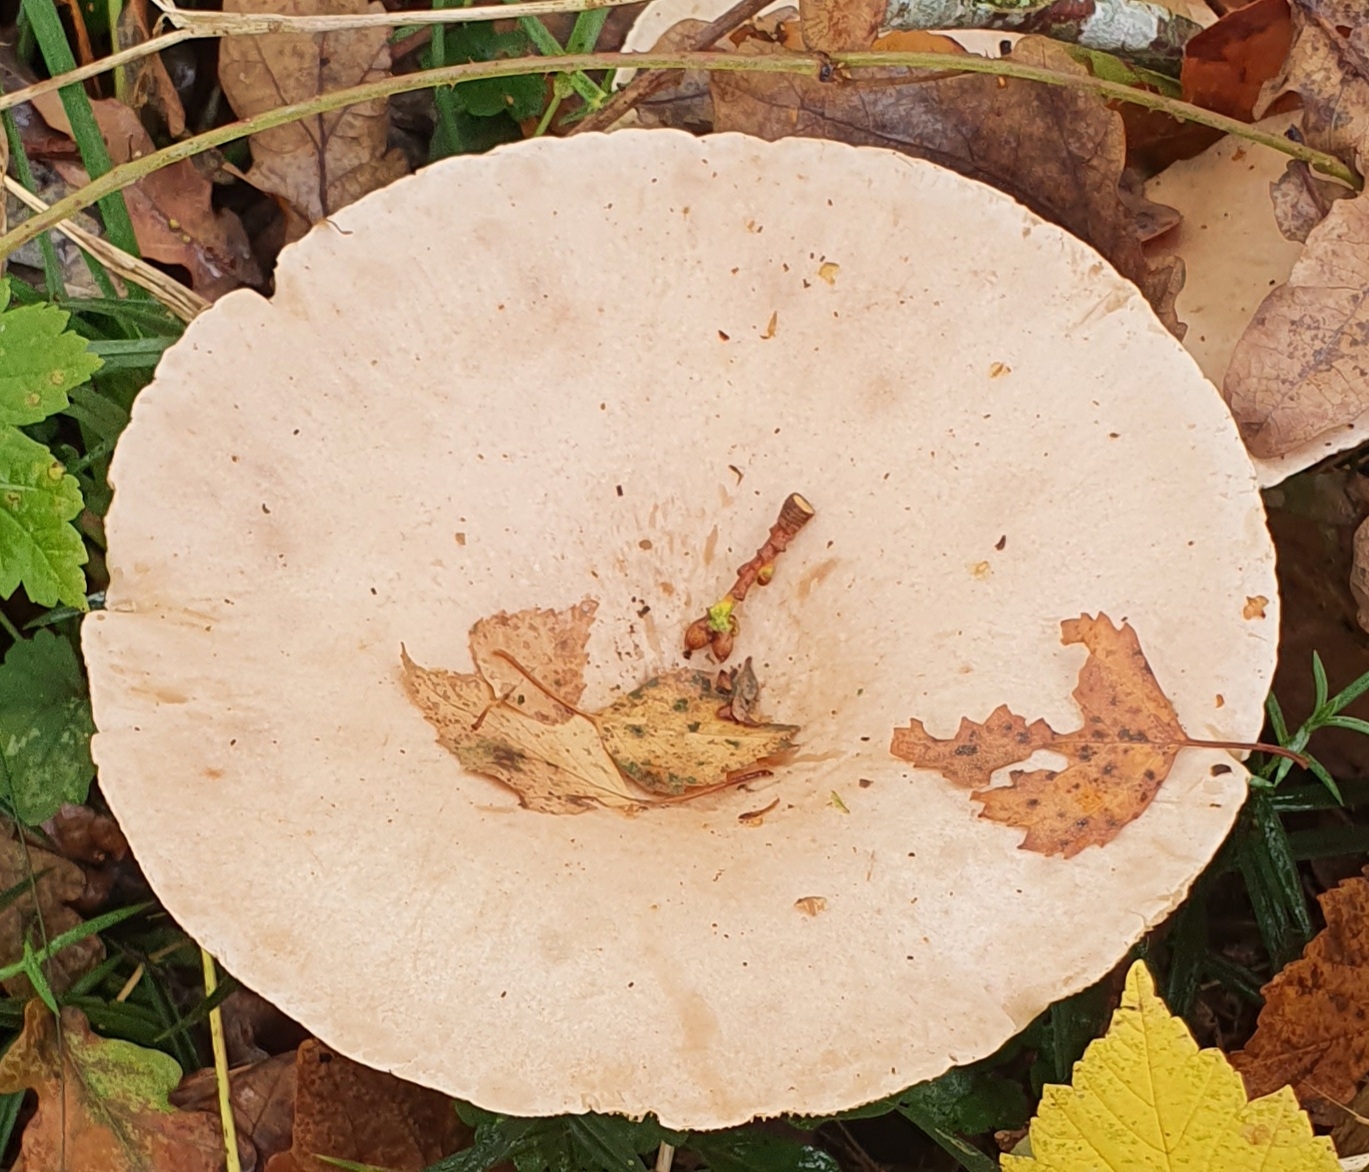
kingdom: Fungi
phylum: Basidiomycota
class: Agaricomycetes
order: Agaricales
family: Tricholomataceae
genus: Infundibulicybe
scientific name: Infundibulicybe geotropa
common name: stor tragthat
